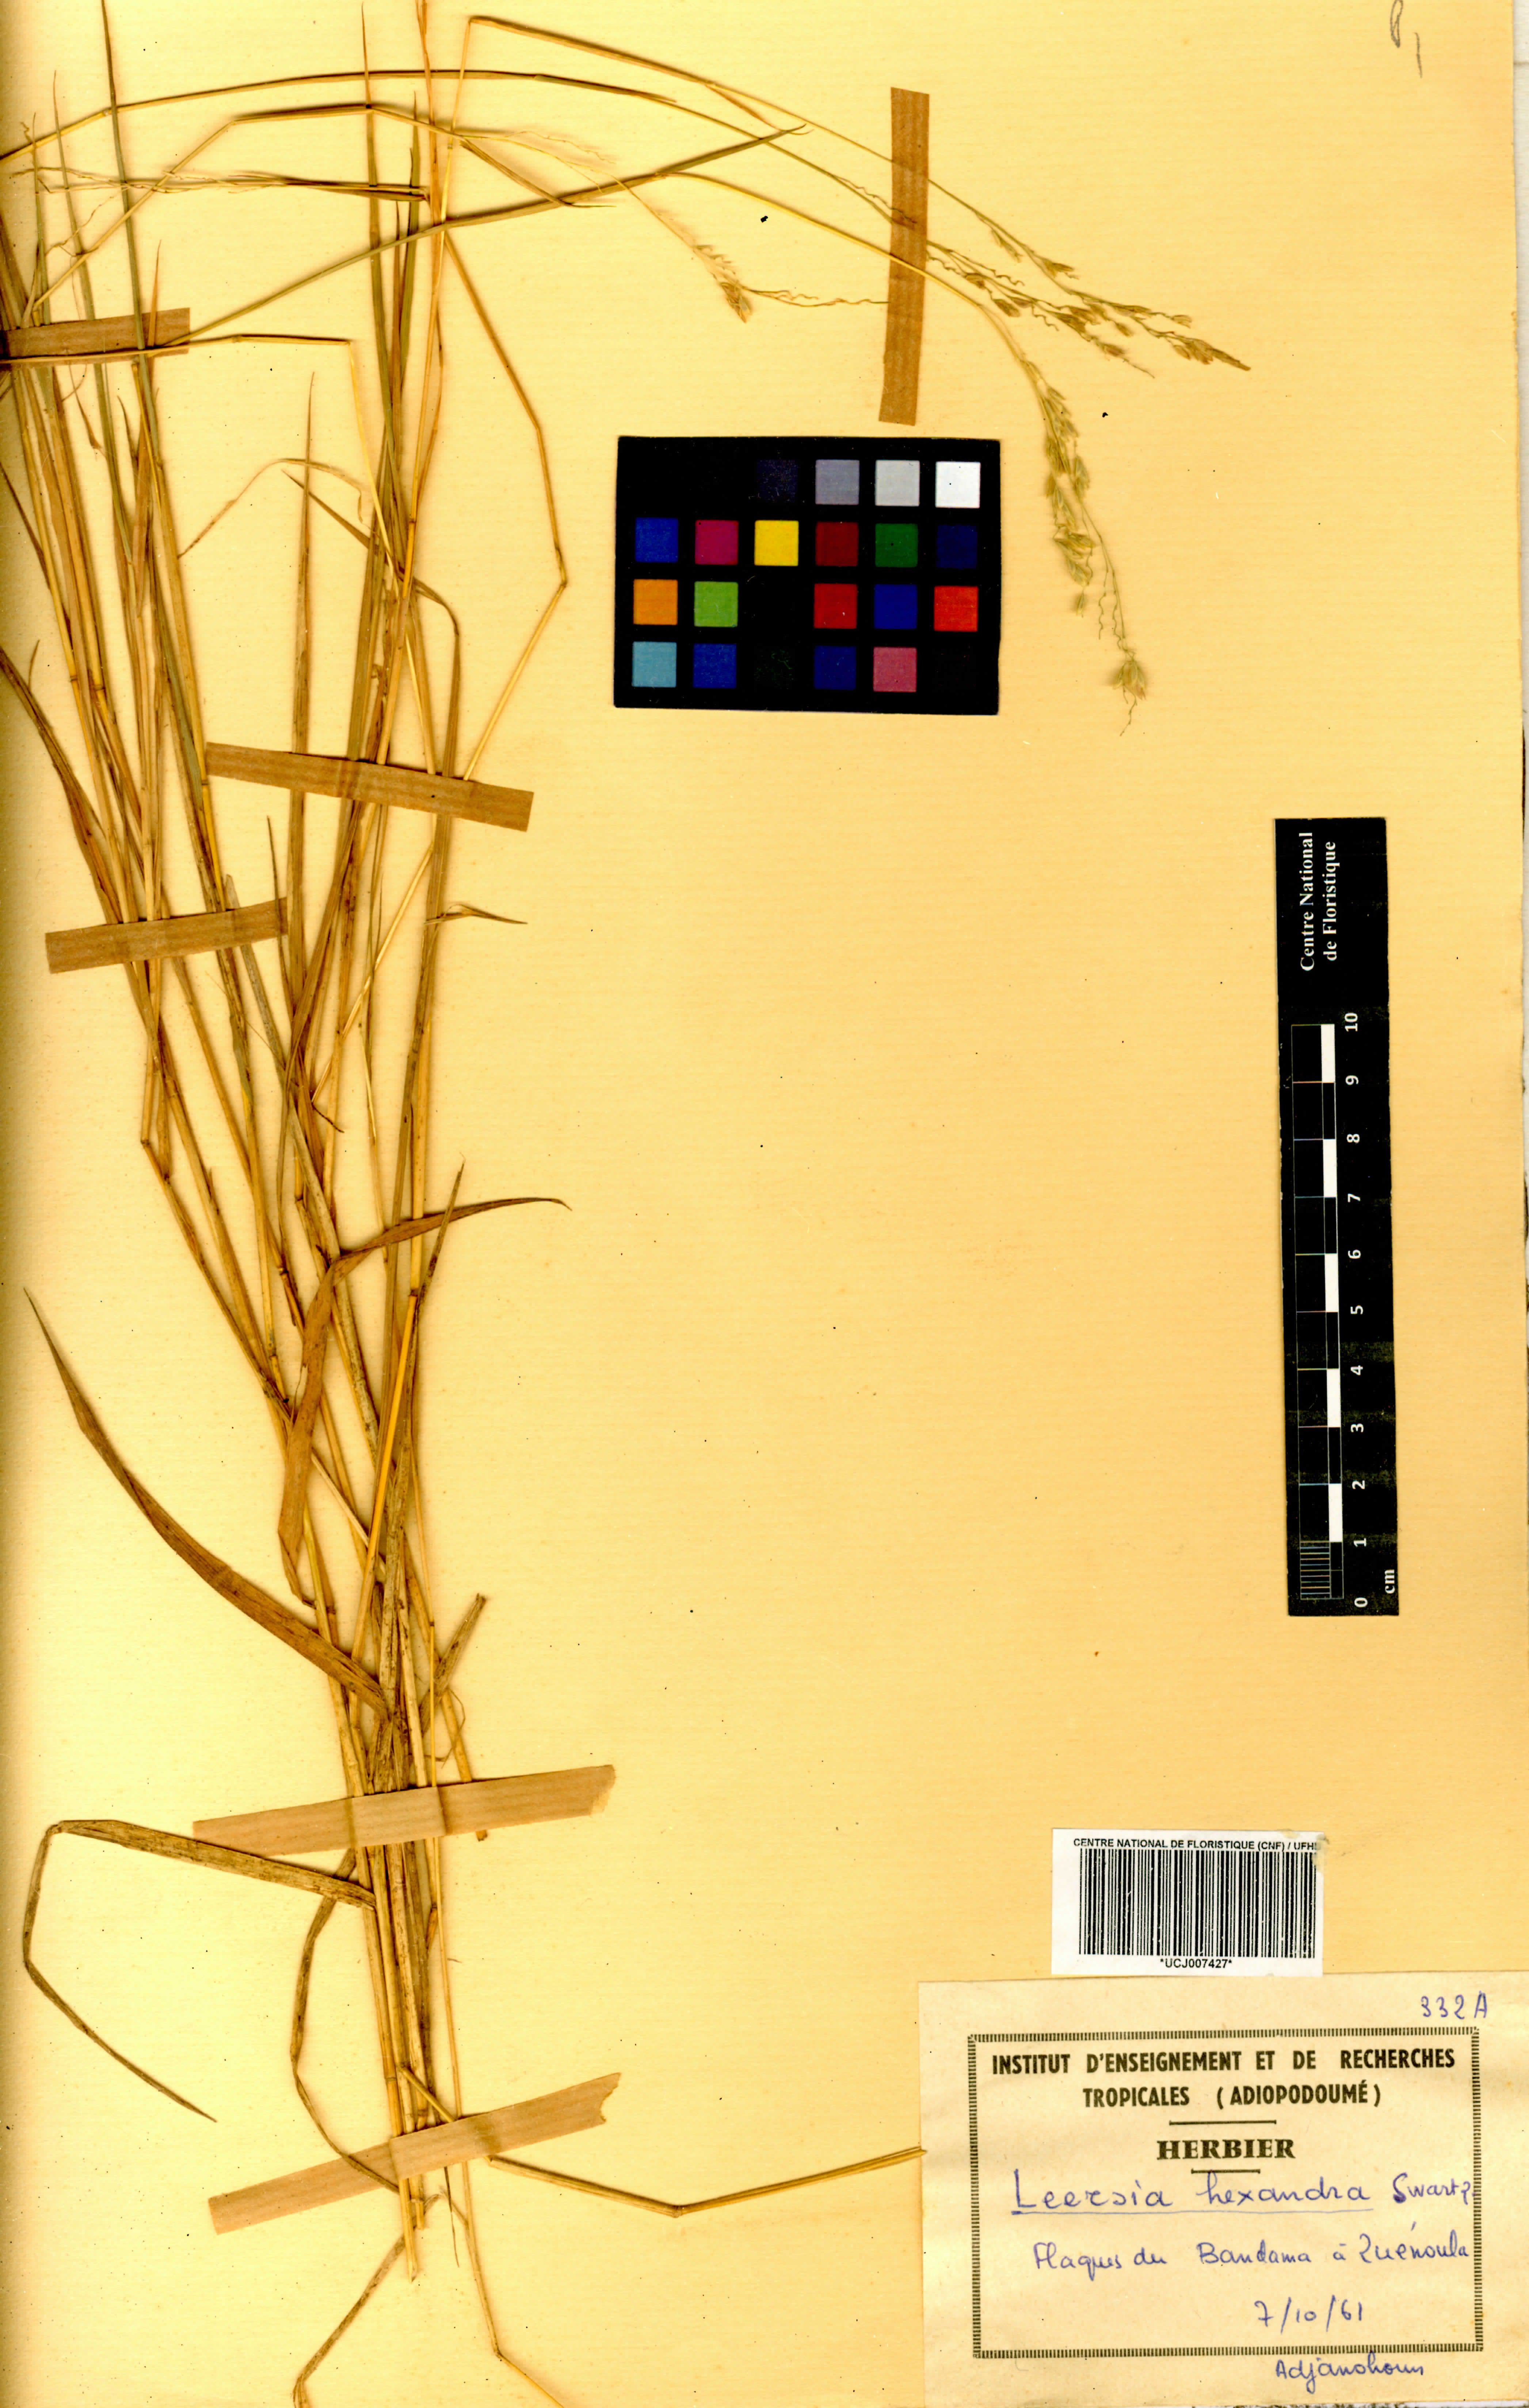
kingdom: Plantae
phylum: Tracheophyta
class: Liliopsida
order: Poales
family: Poaceae
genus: Leersia
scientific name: Leersia hexandra
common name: Southern cut grass
